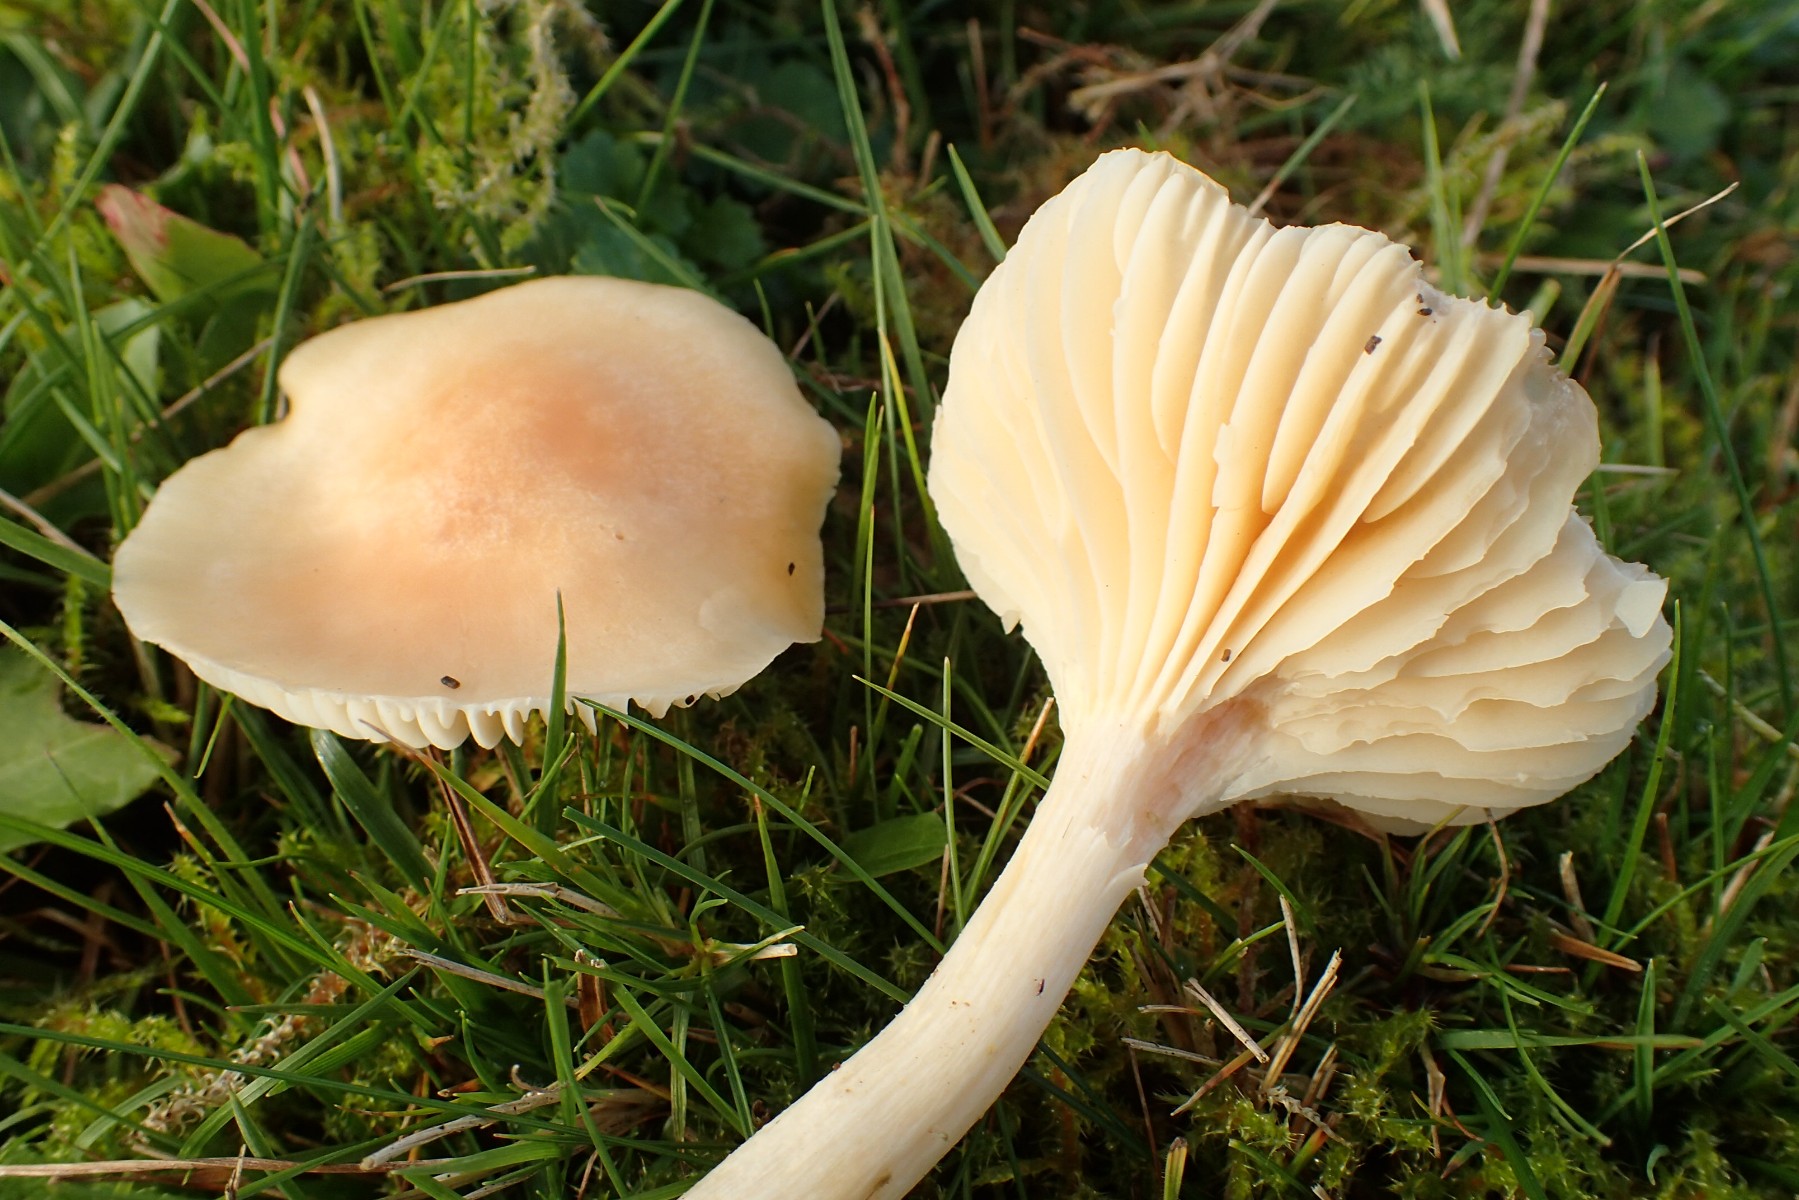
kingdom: Fungi
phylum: Basidiomycota
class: Agaricomycetes
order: Agaricales
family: Hygrophoraceae
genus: Cuphophyllus
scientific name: Cuphophyllus pratensis
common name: eng-vokshat
